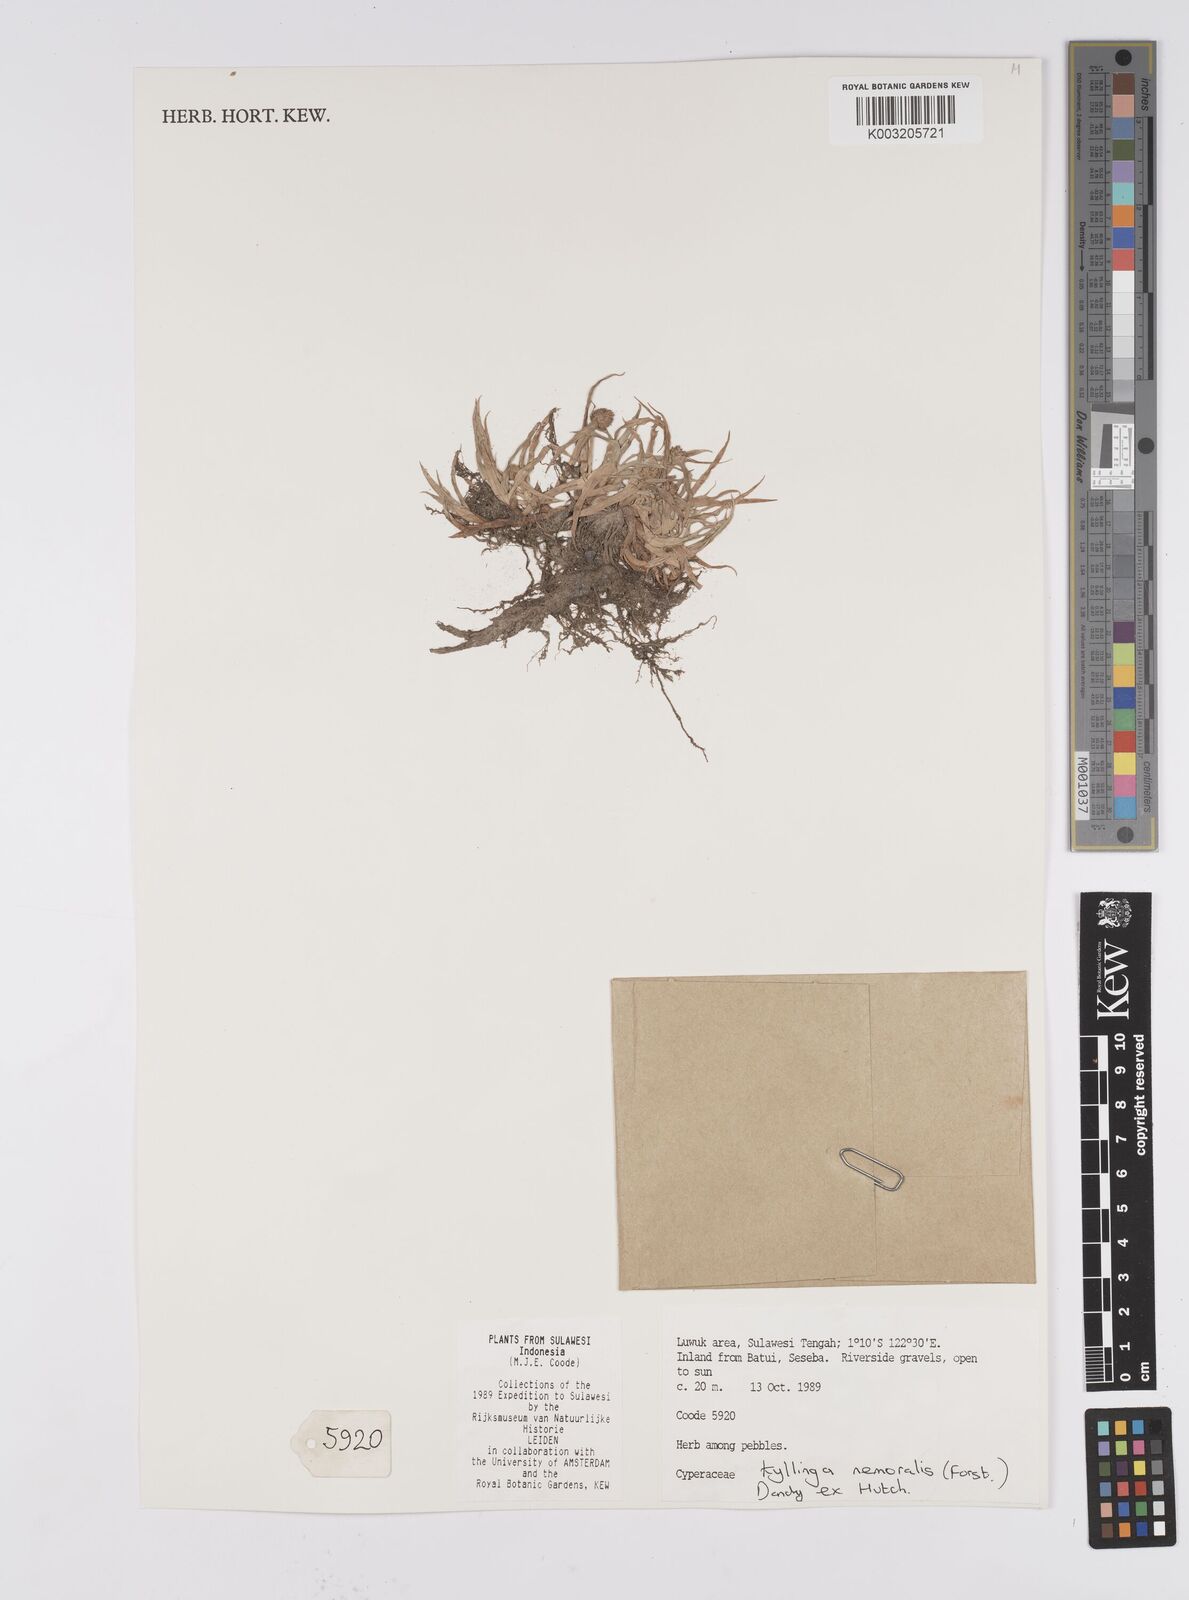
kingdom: Plantae
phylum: Tracheophyta
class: Liliopsida
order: Poales
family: Cyperaceae
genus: Cyperus
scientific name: Cyperus nemoralis
